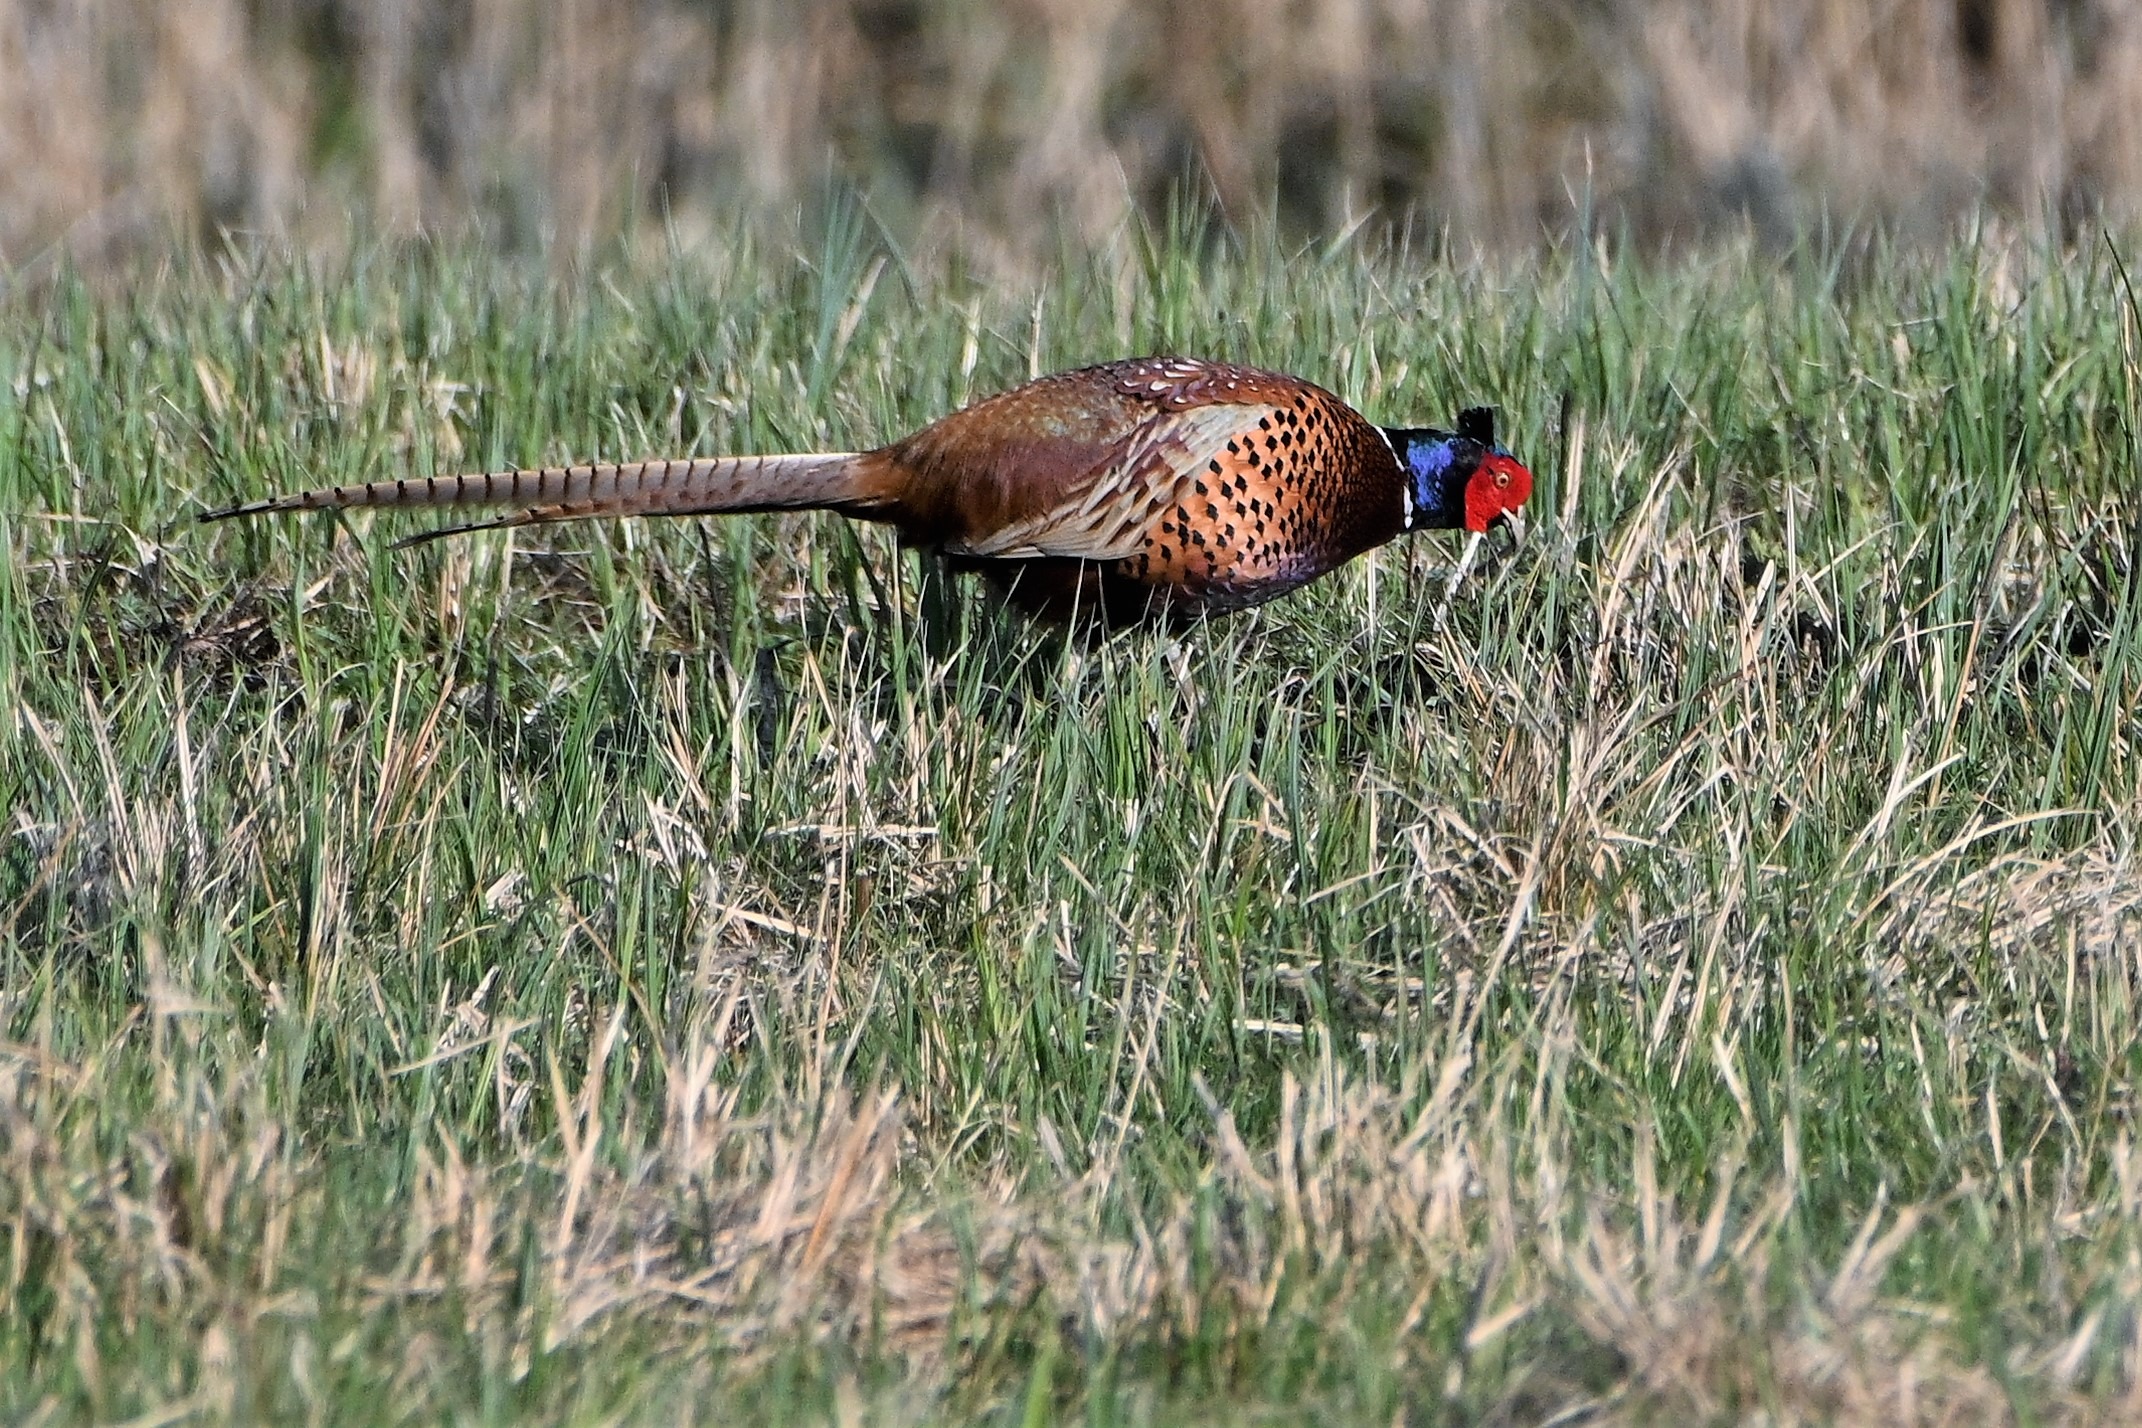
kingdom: Animalia
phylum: Chordata
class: Aves
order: Galliformes
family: Phasianidae
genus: Phasianus
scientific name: Phasianus colchicus
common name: Fasan
